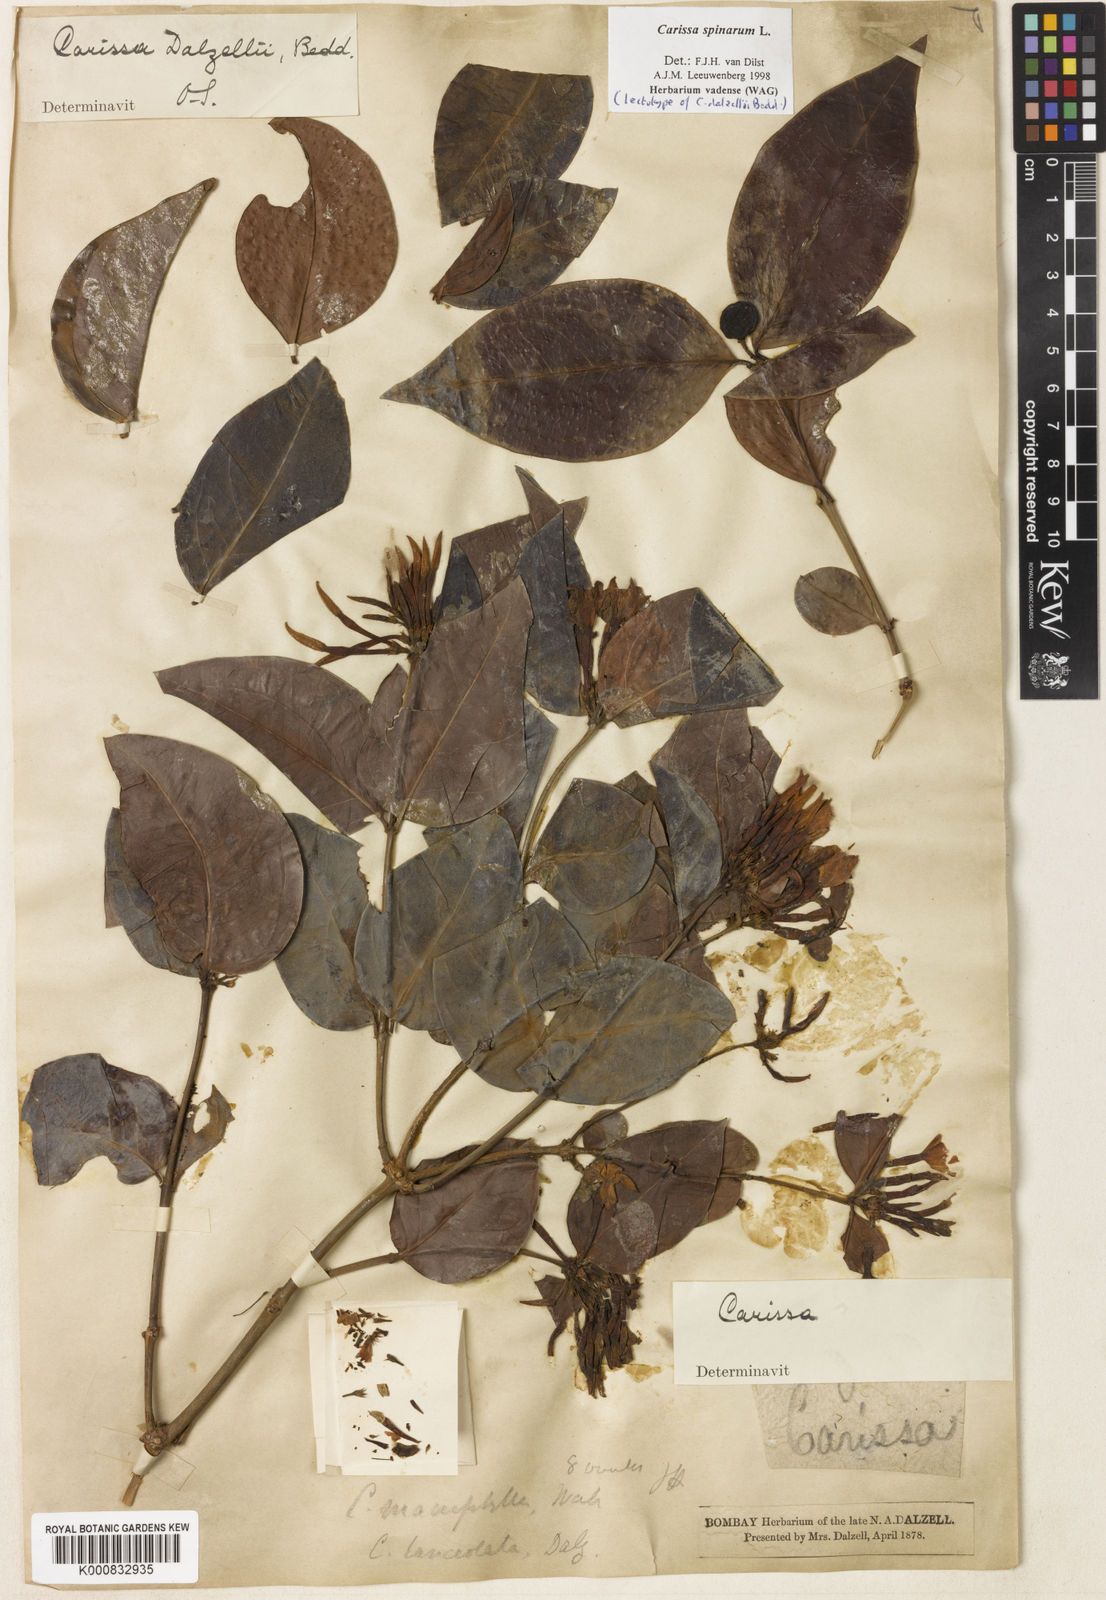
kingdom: Plantae
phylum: Tracheophyta
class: Magnoliopsida
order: Gentianales
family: Apocynaceae
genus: Carissa
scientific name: Carissa inermis
